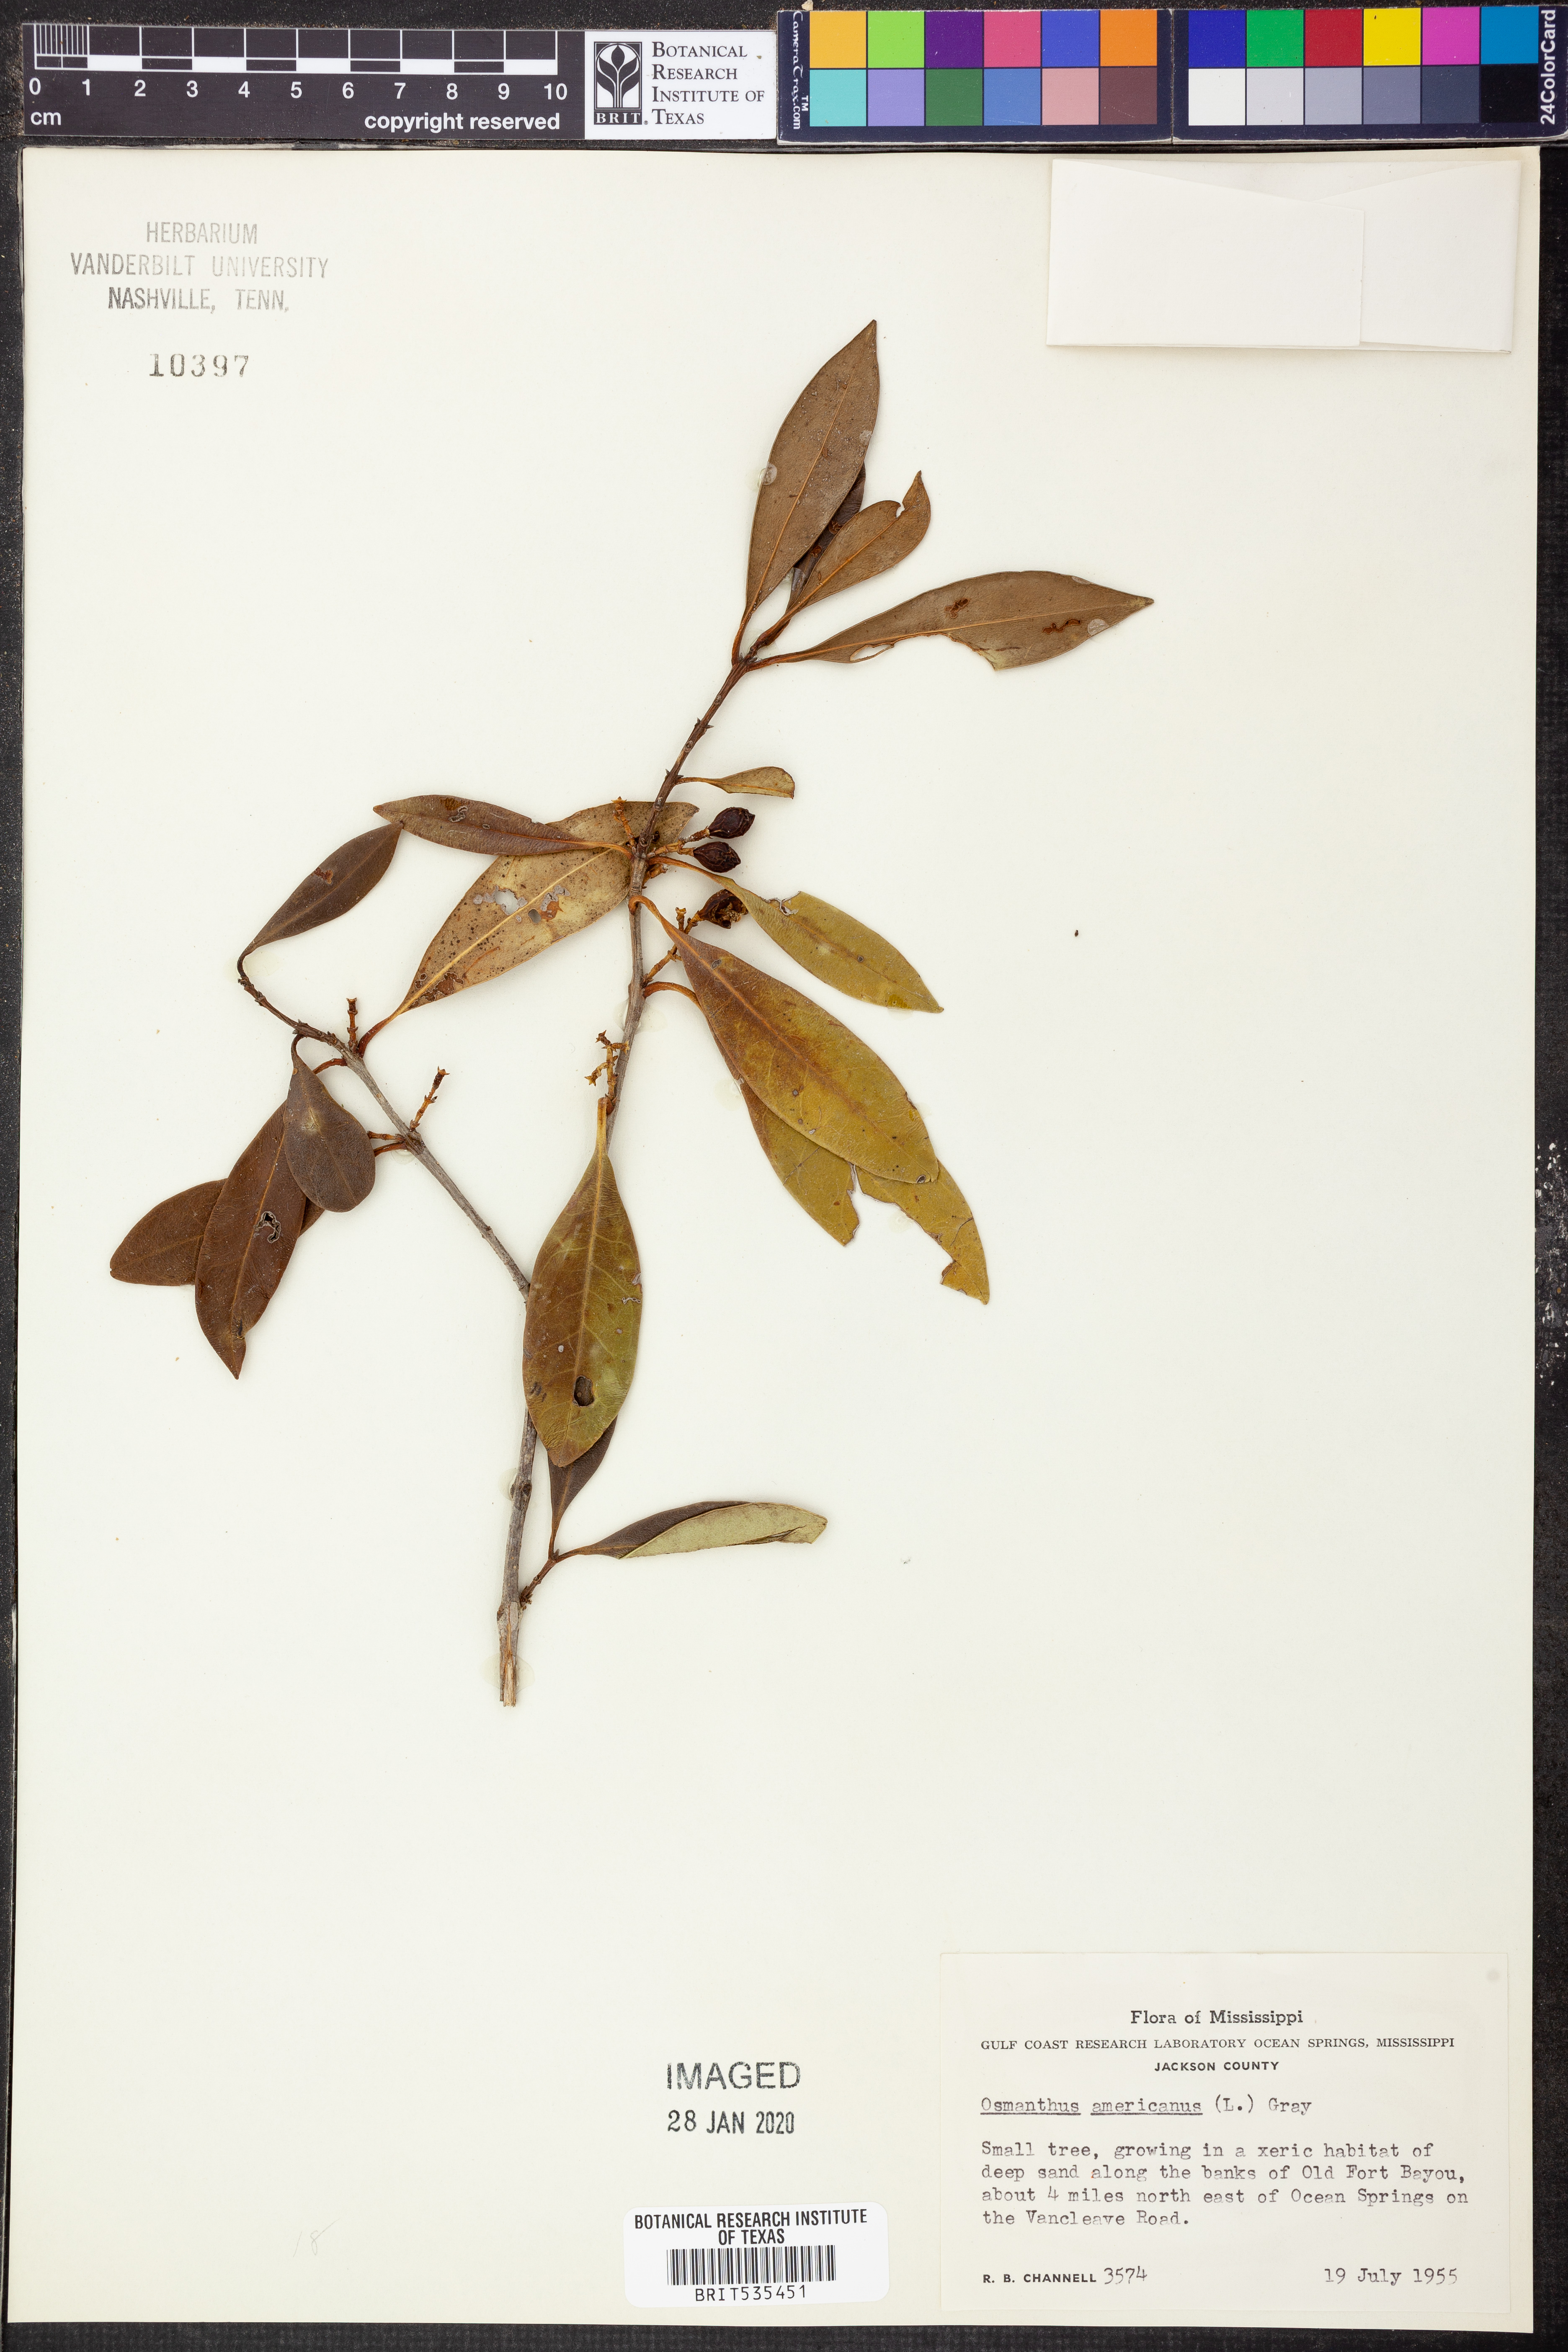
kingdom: Plantae
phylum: Tracheophyta
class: Magnoliopsida
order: Lamiales
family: Oleaceae
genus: Osmanthus
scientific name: Osmanthus americanus
